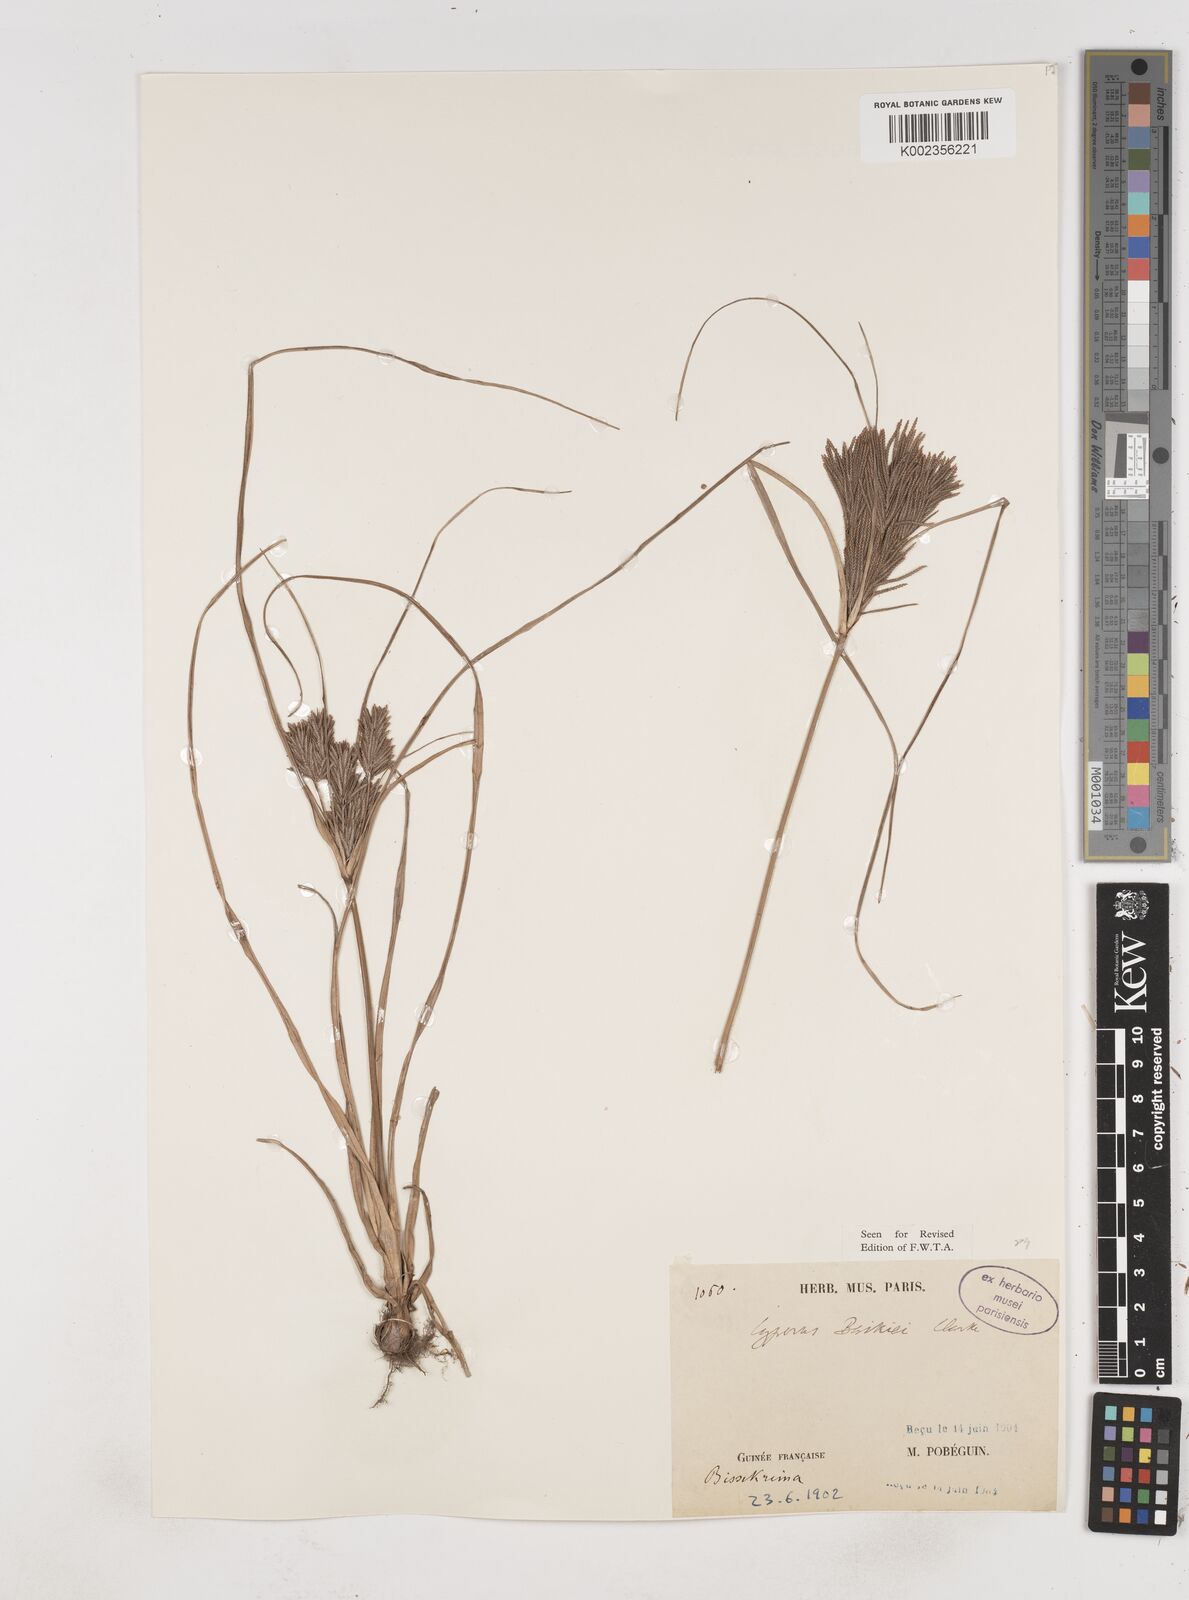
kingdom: Plantae
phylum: Tracheophyta
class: Liliopsida
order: Poales
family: Cyperaceae
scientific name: Cyperaceae
